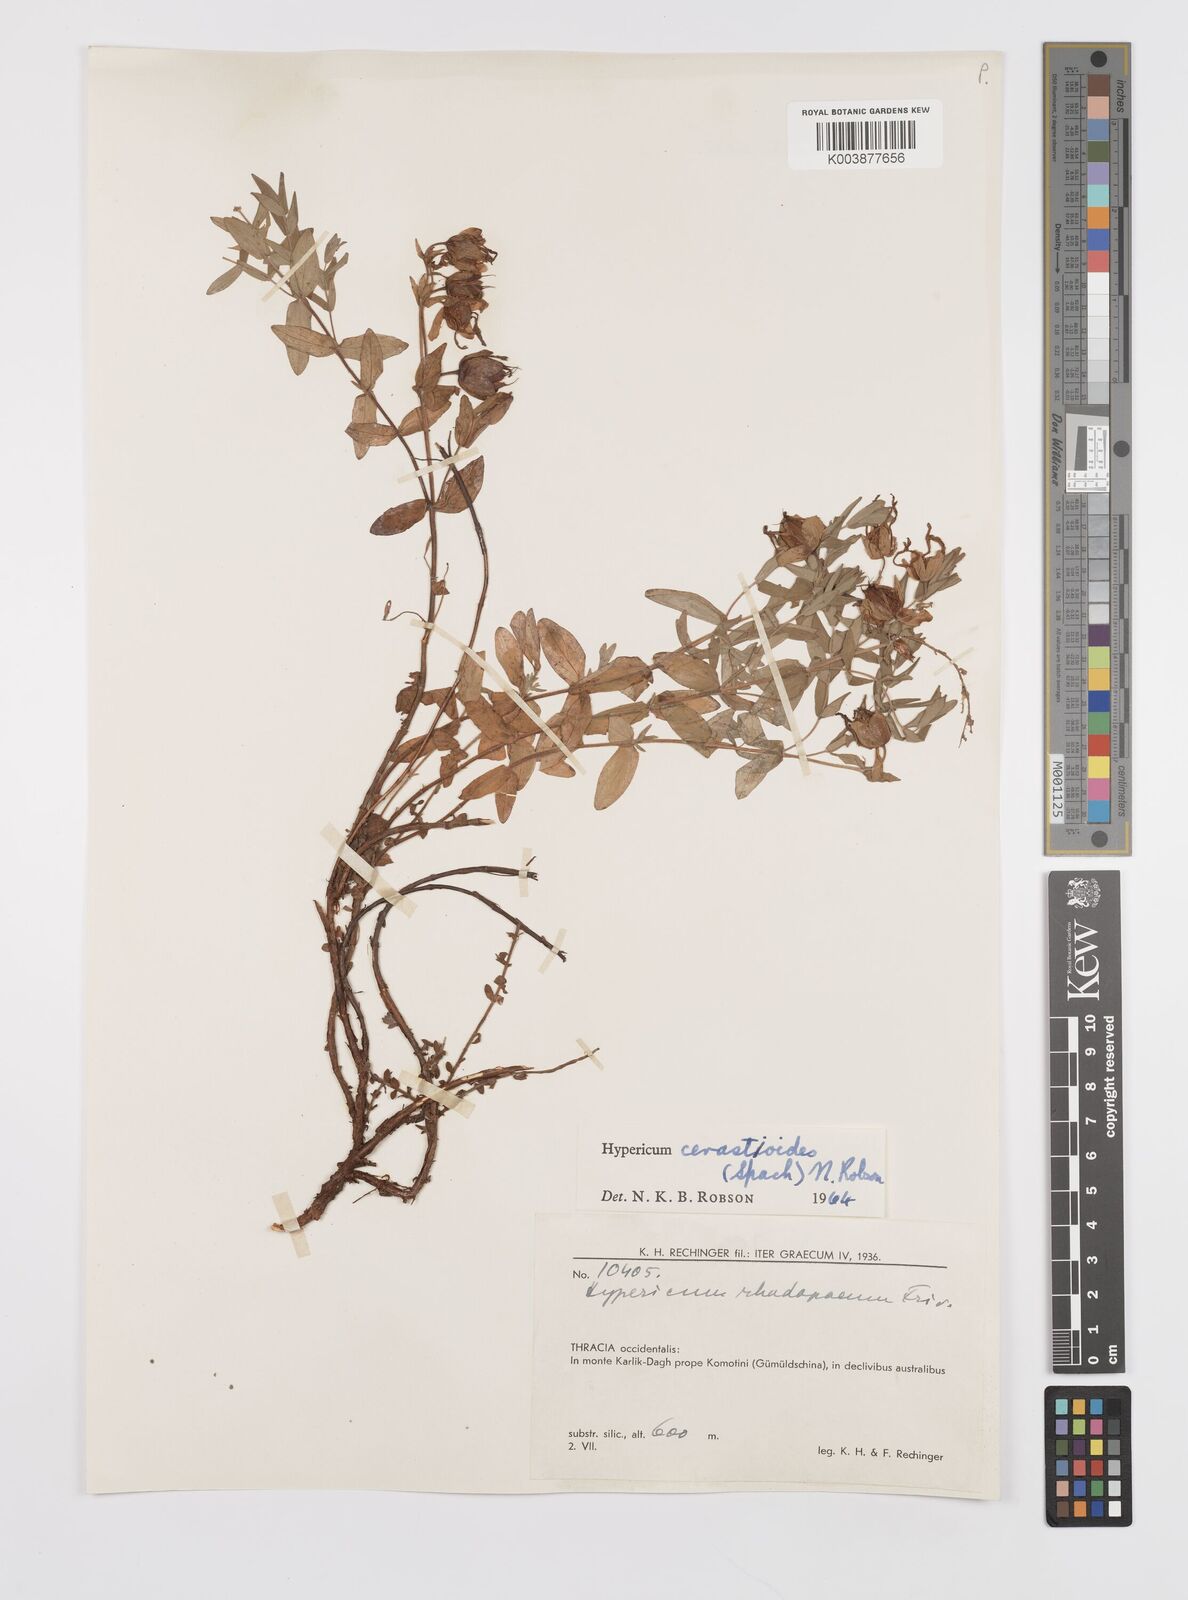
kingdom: Plantae
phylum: Tracheophyta
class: Magnoliopsida
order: Malpighiales
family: Hypericaceae
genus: Hypericum
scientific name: Hypericum cerastoides
